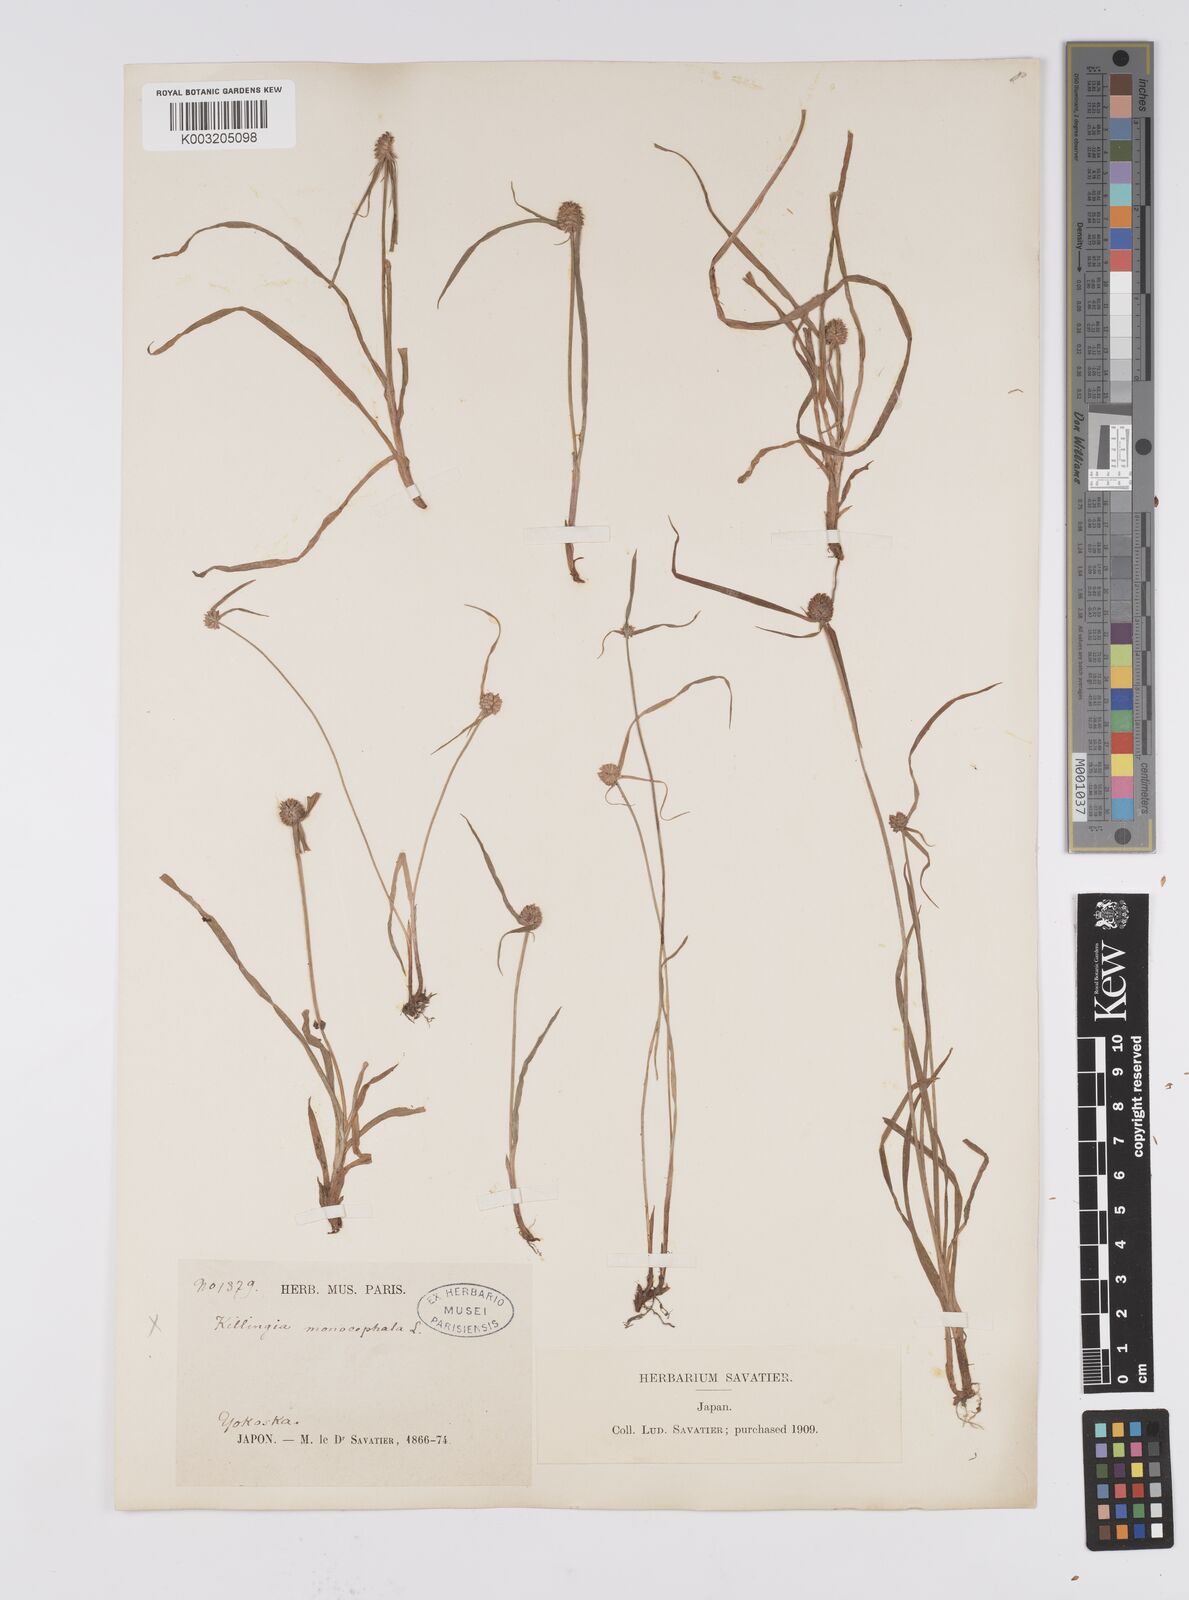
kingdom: Plantae
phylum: Tracheophyta
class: Liliopsida
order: Poales
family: Cyperaceae
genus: Cyperus
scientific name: Cyperus brevifolius
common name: Globe kyllinga
